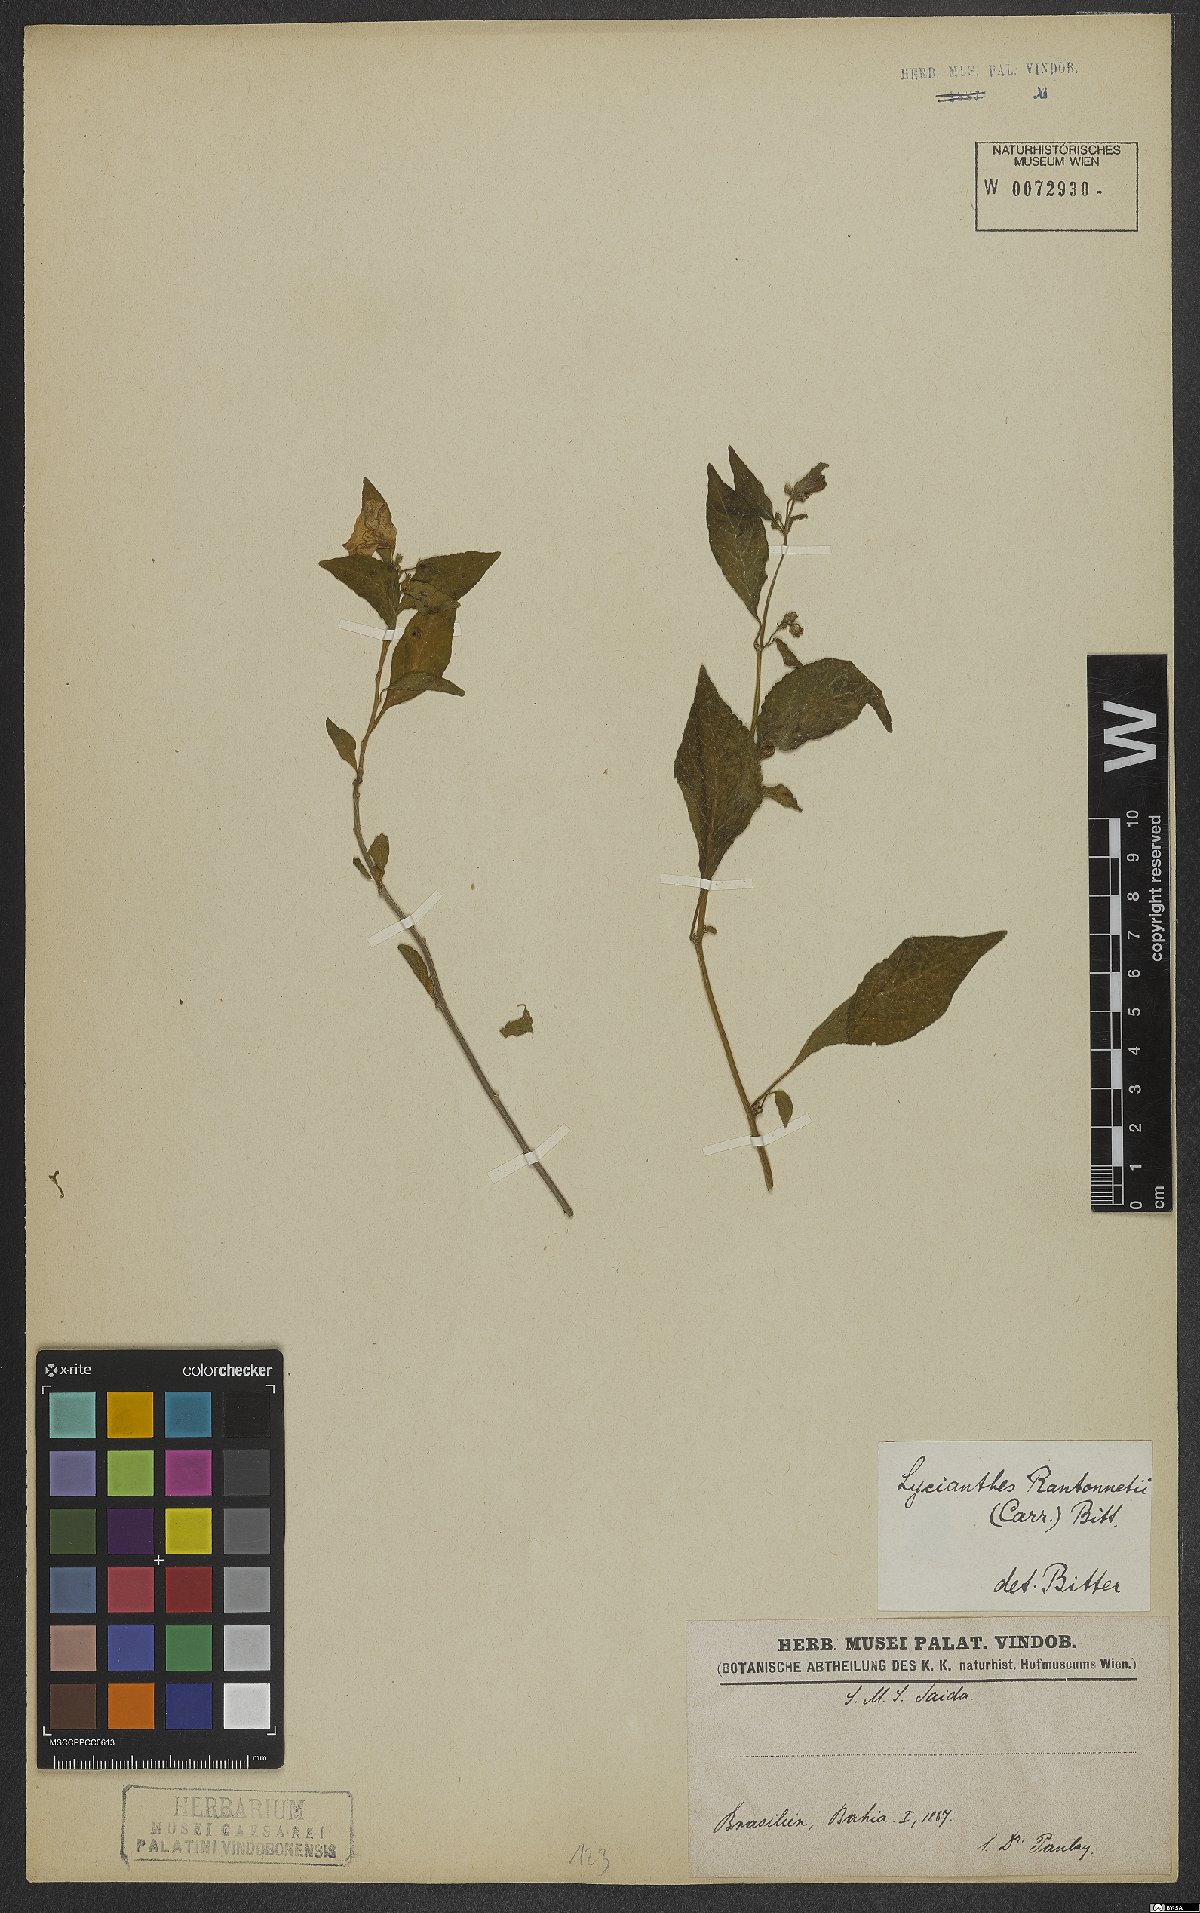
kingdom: Plantae
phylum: Tracheophyta
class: Magnoliopsida
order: Solanales
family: Solanaceae
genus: Lycianthes
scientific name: Lycianthes rantonnetii
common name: Blue potatobush
